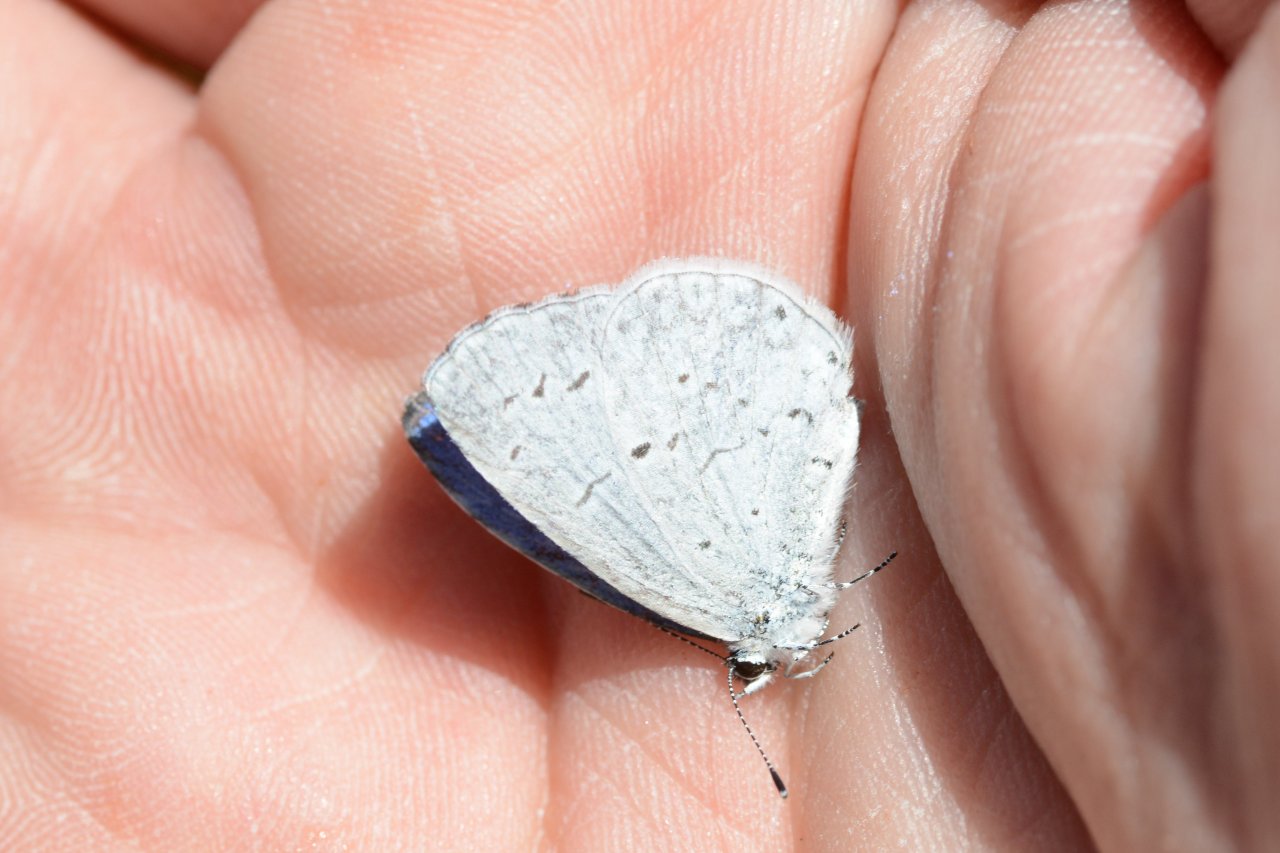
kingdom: Animalia
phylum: Arthropoda
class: Insecta
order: Lepidoptera
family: Lycaenidae
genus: Celastrina
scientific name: Celastrina
